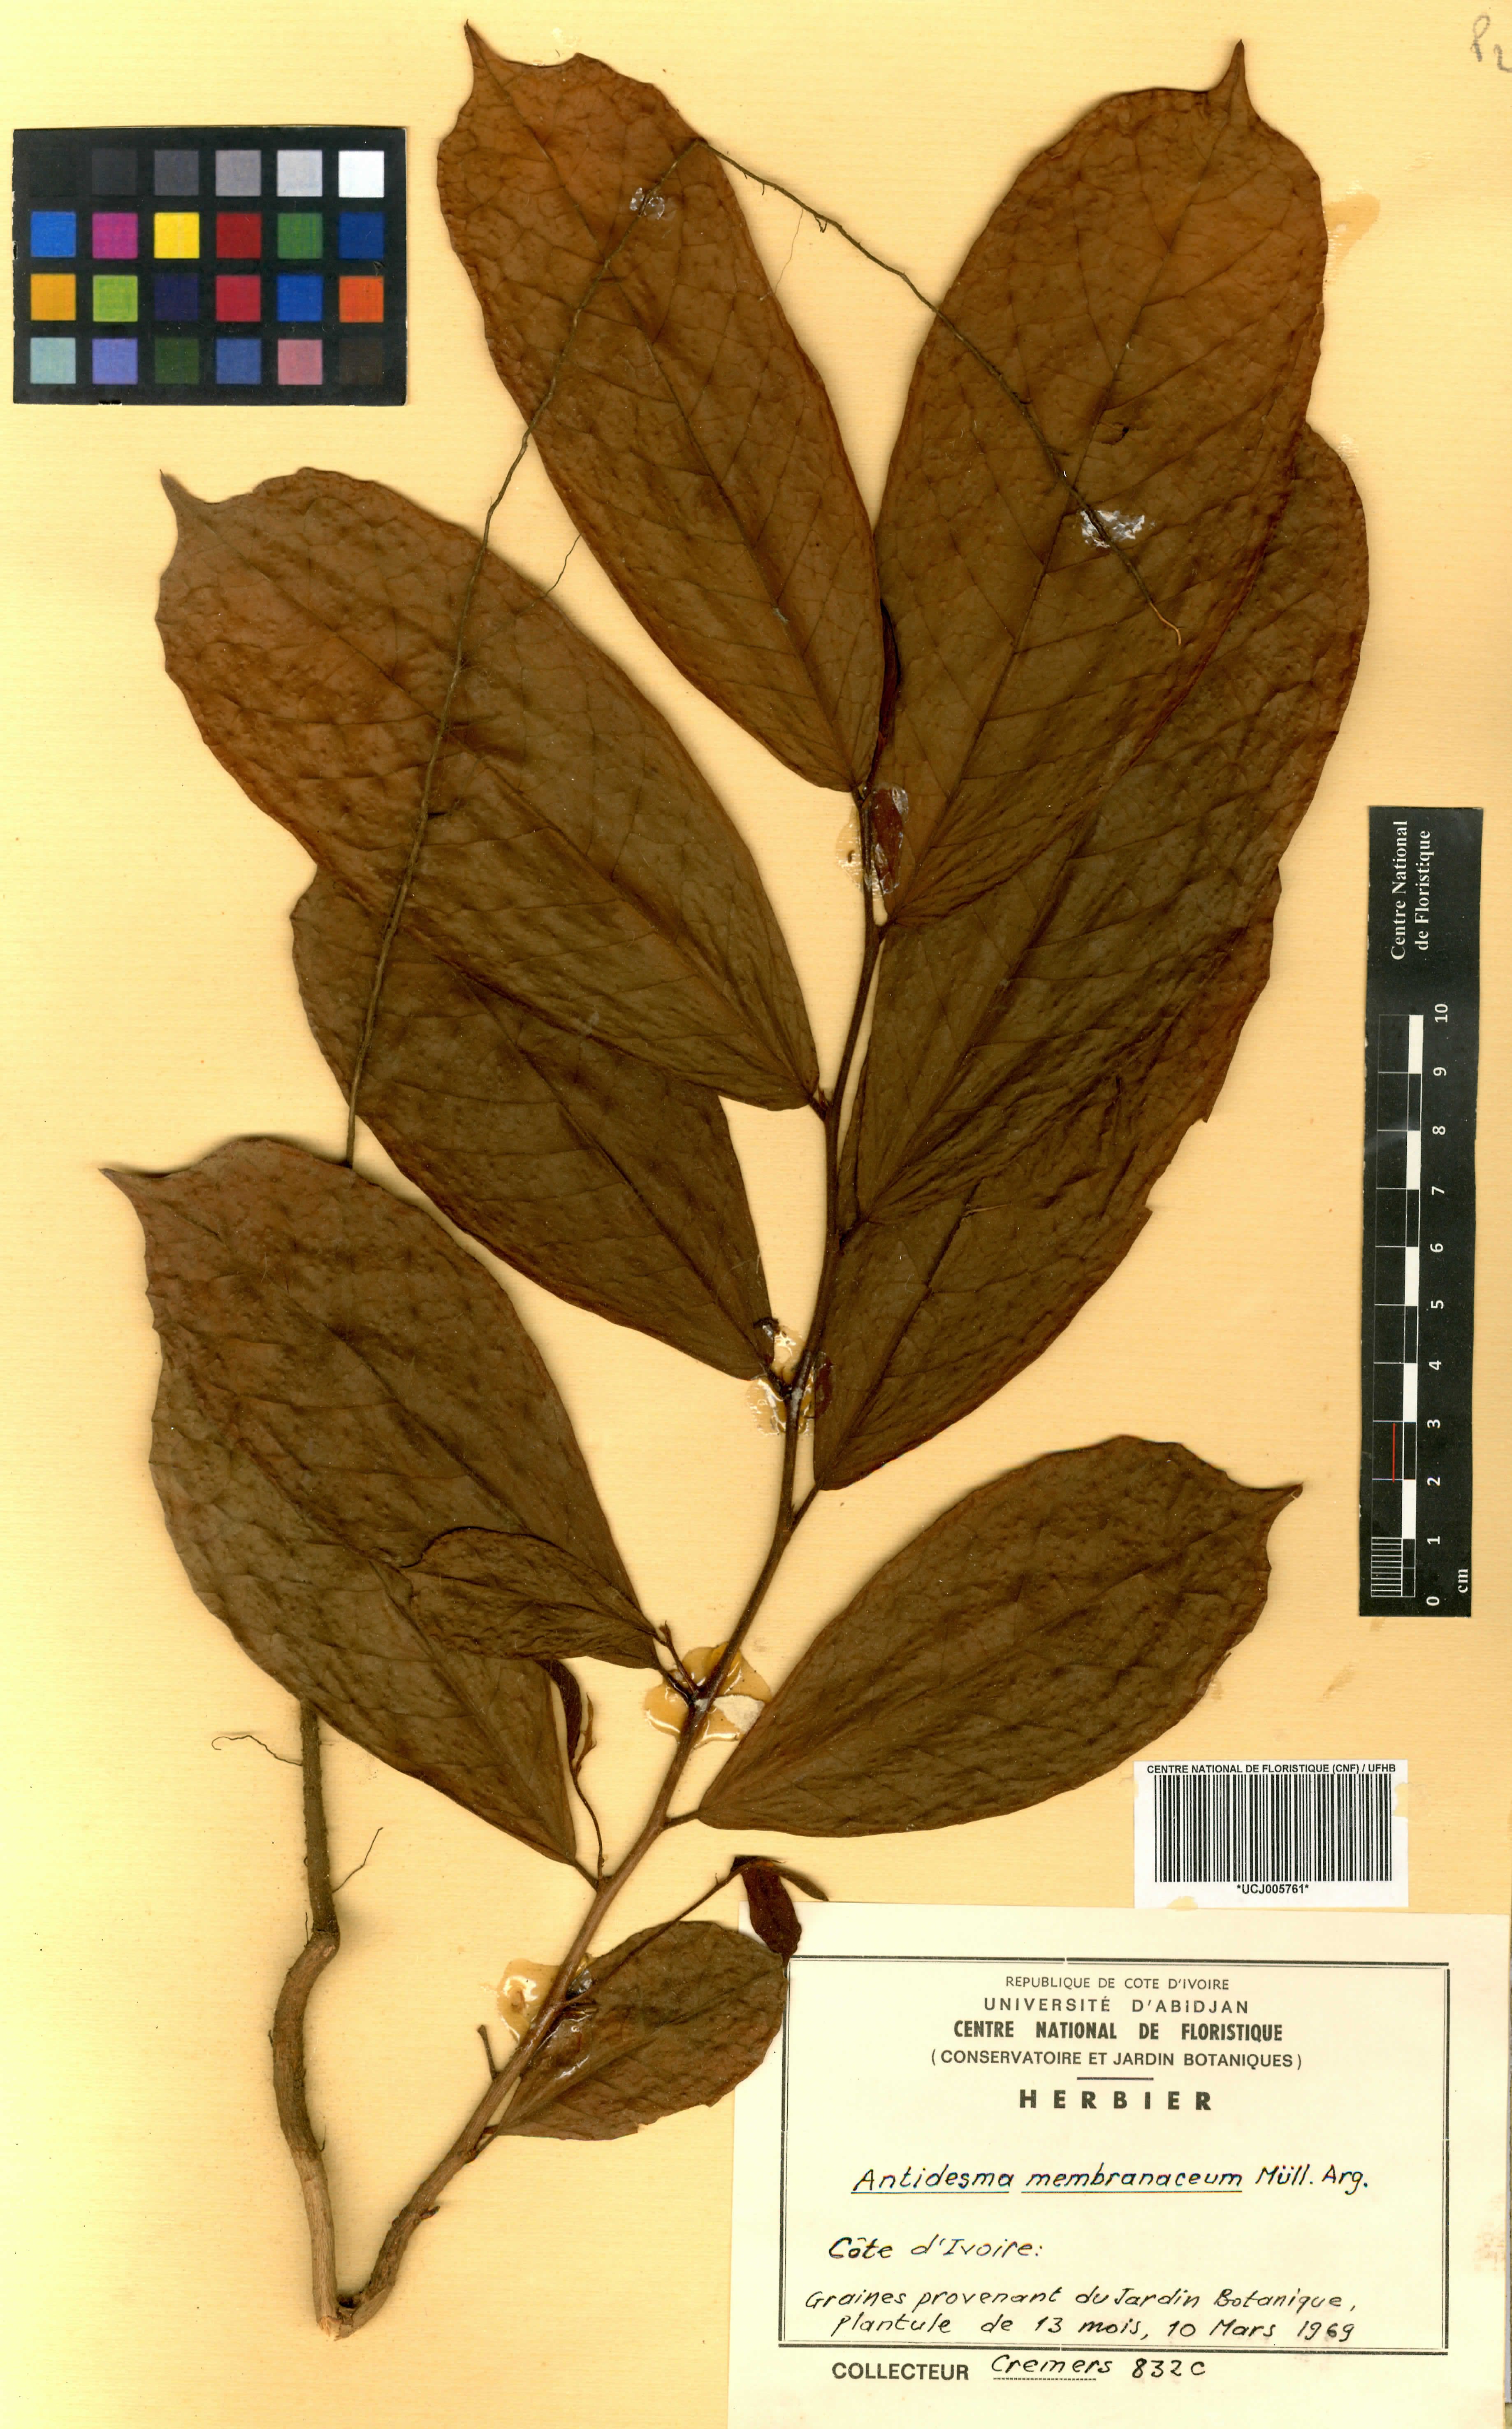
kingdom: Plantae
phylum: Tracheophyta
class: Magnoliopsida
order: Malpighiales
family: Phyllanthaceae
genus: Antidesma
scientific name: Antidesma membranaceum
